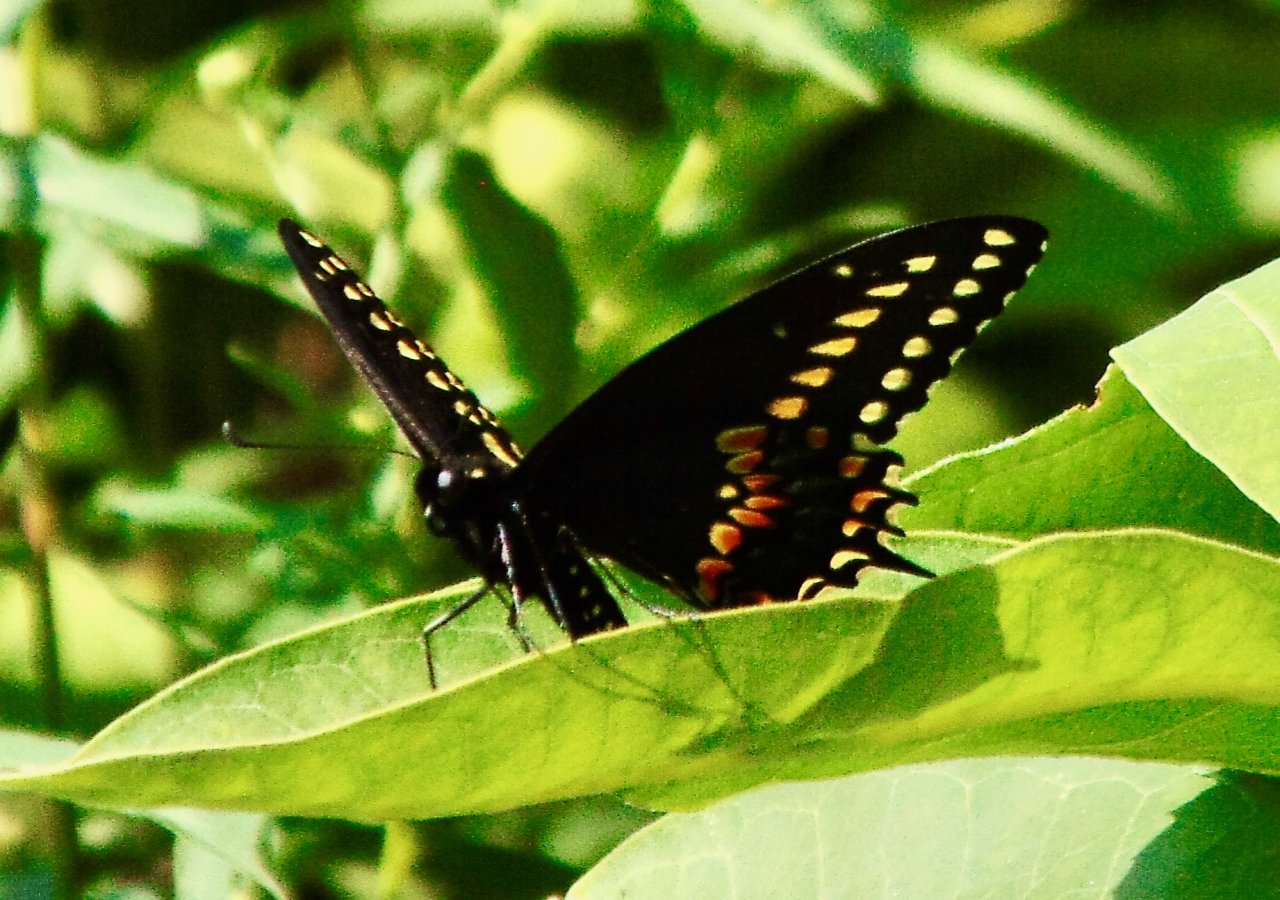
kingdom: Animalia
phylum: Arthropoda
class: Insecta
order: Lepidoptera
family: Papilionidae
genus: Papilio
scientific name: Papilio polyxenes
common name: Black Swallowtail
